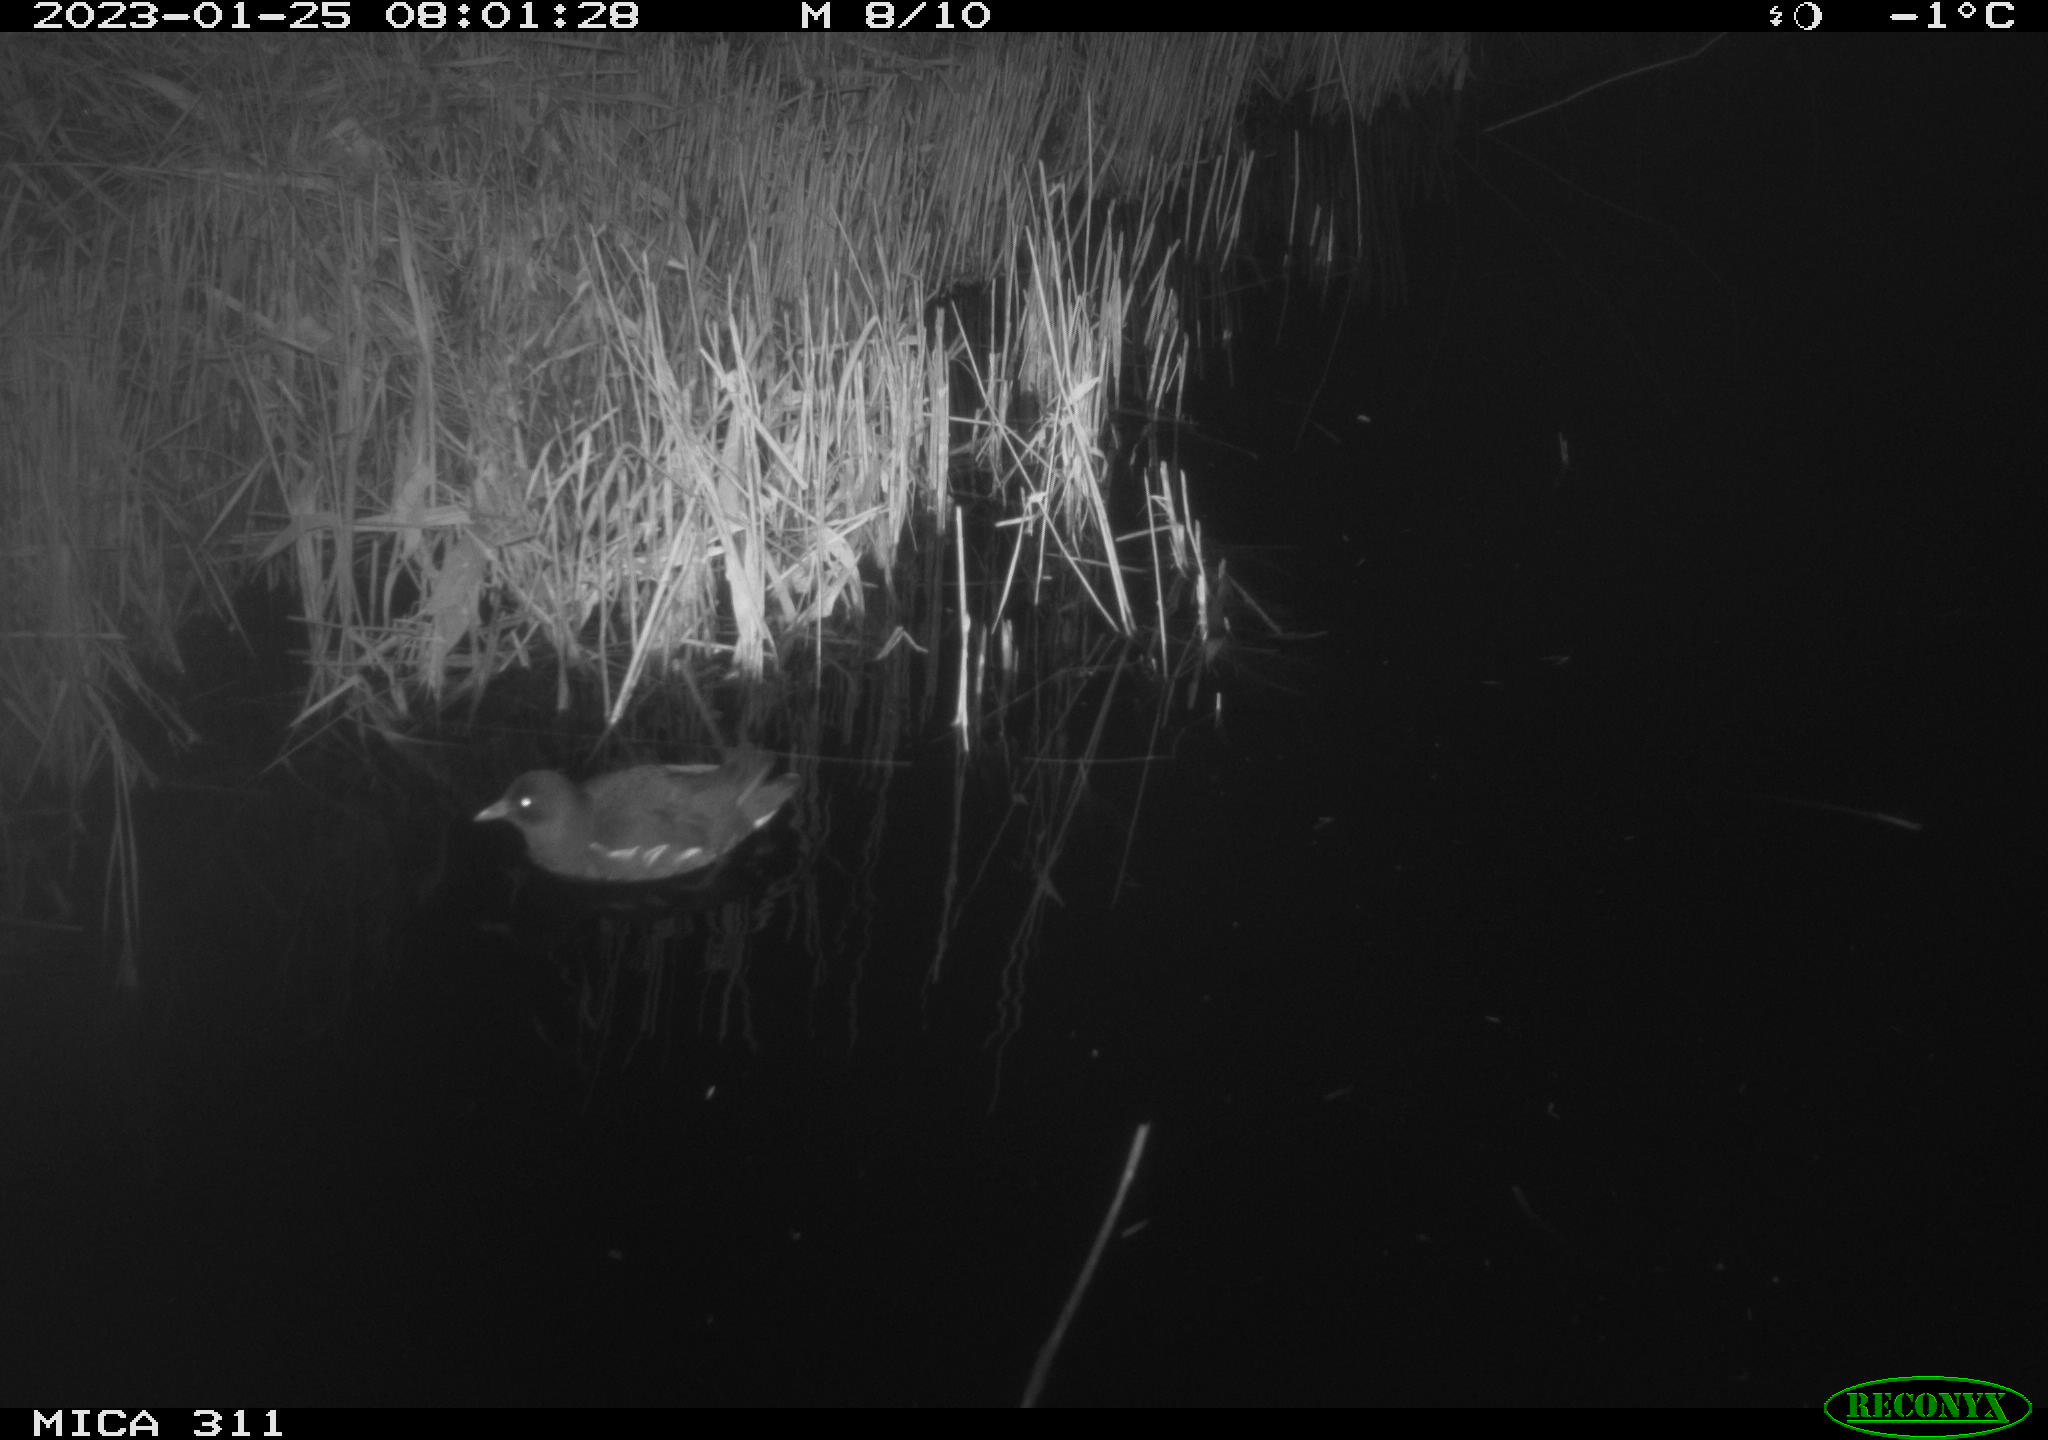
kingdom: Animalia
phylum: Chordata
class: Aves
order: Gruiformes
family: Rallidae
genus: Gallinula
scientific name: Gallinula chloropus
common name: Common moorhen
